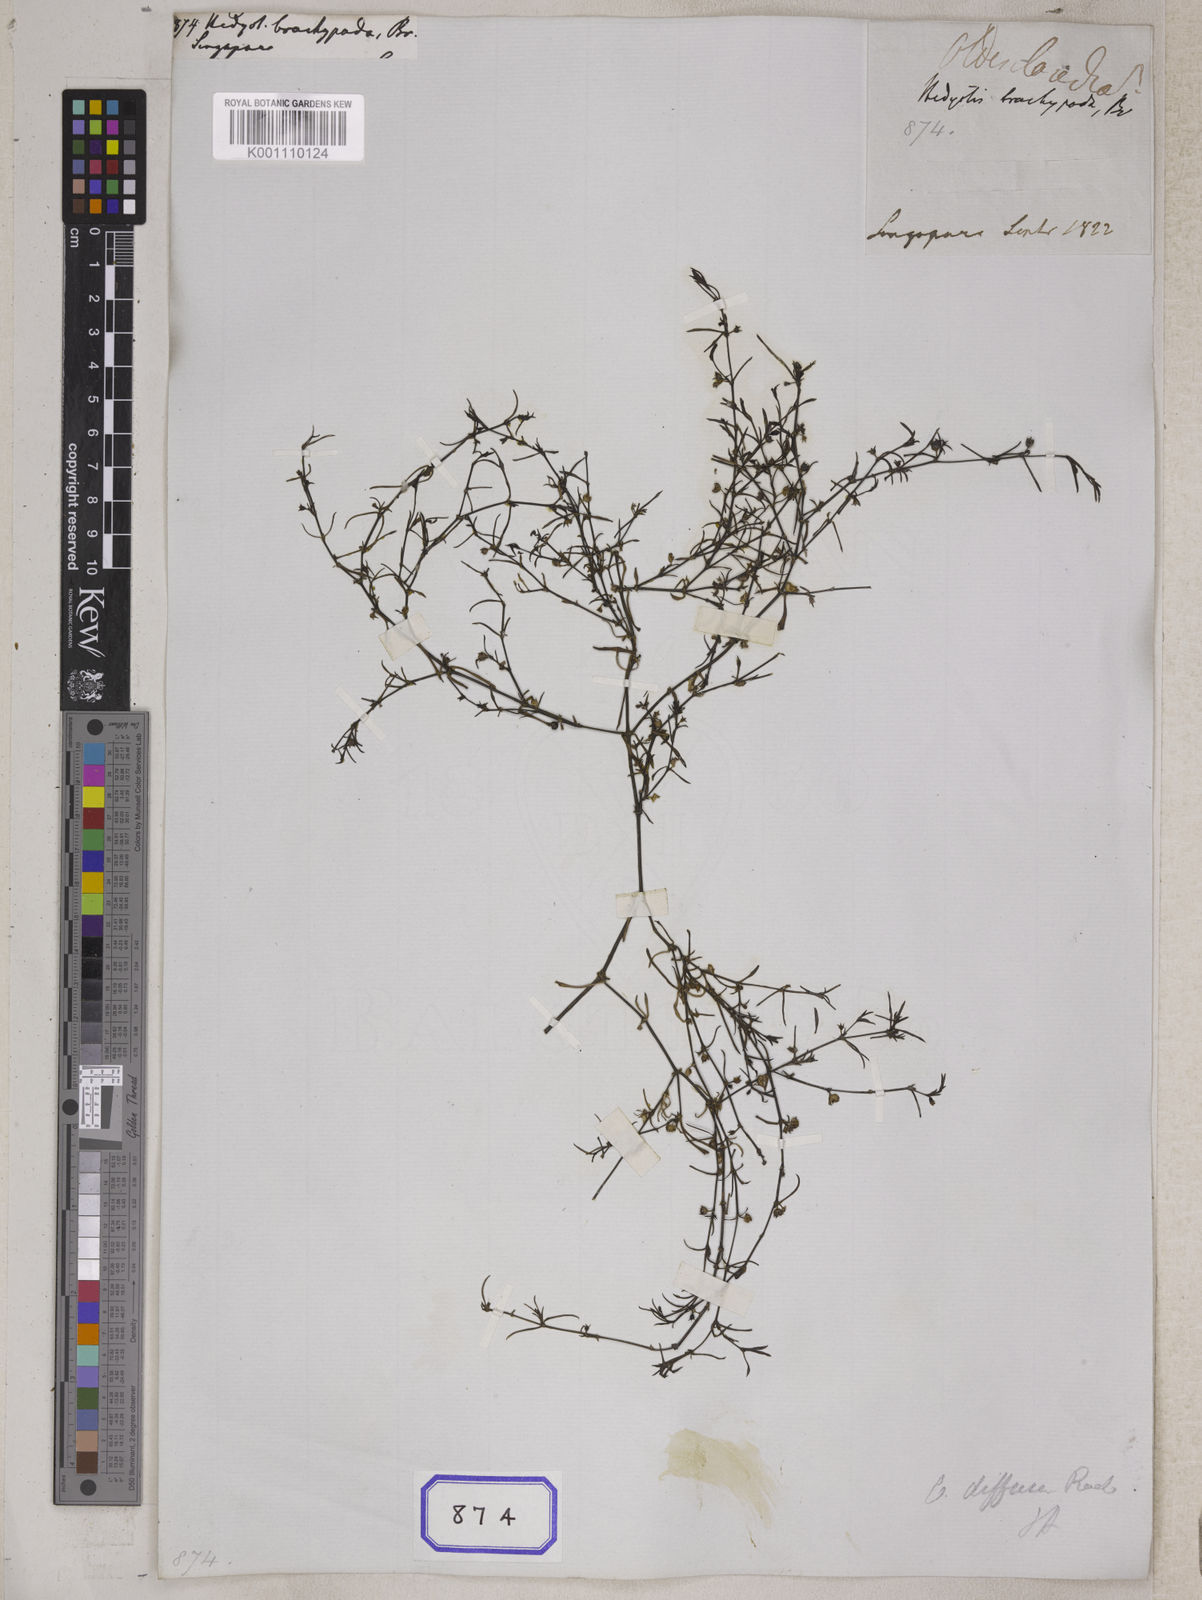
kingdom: Plantae
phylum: Tracheophyta
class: Magnoliopsida
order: Gentianales
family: Rubiaceae
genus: Hedyotis
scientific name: Hedyotis
